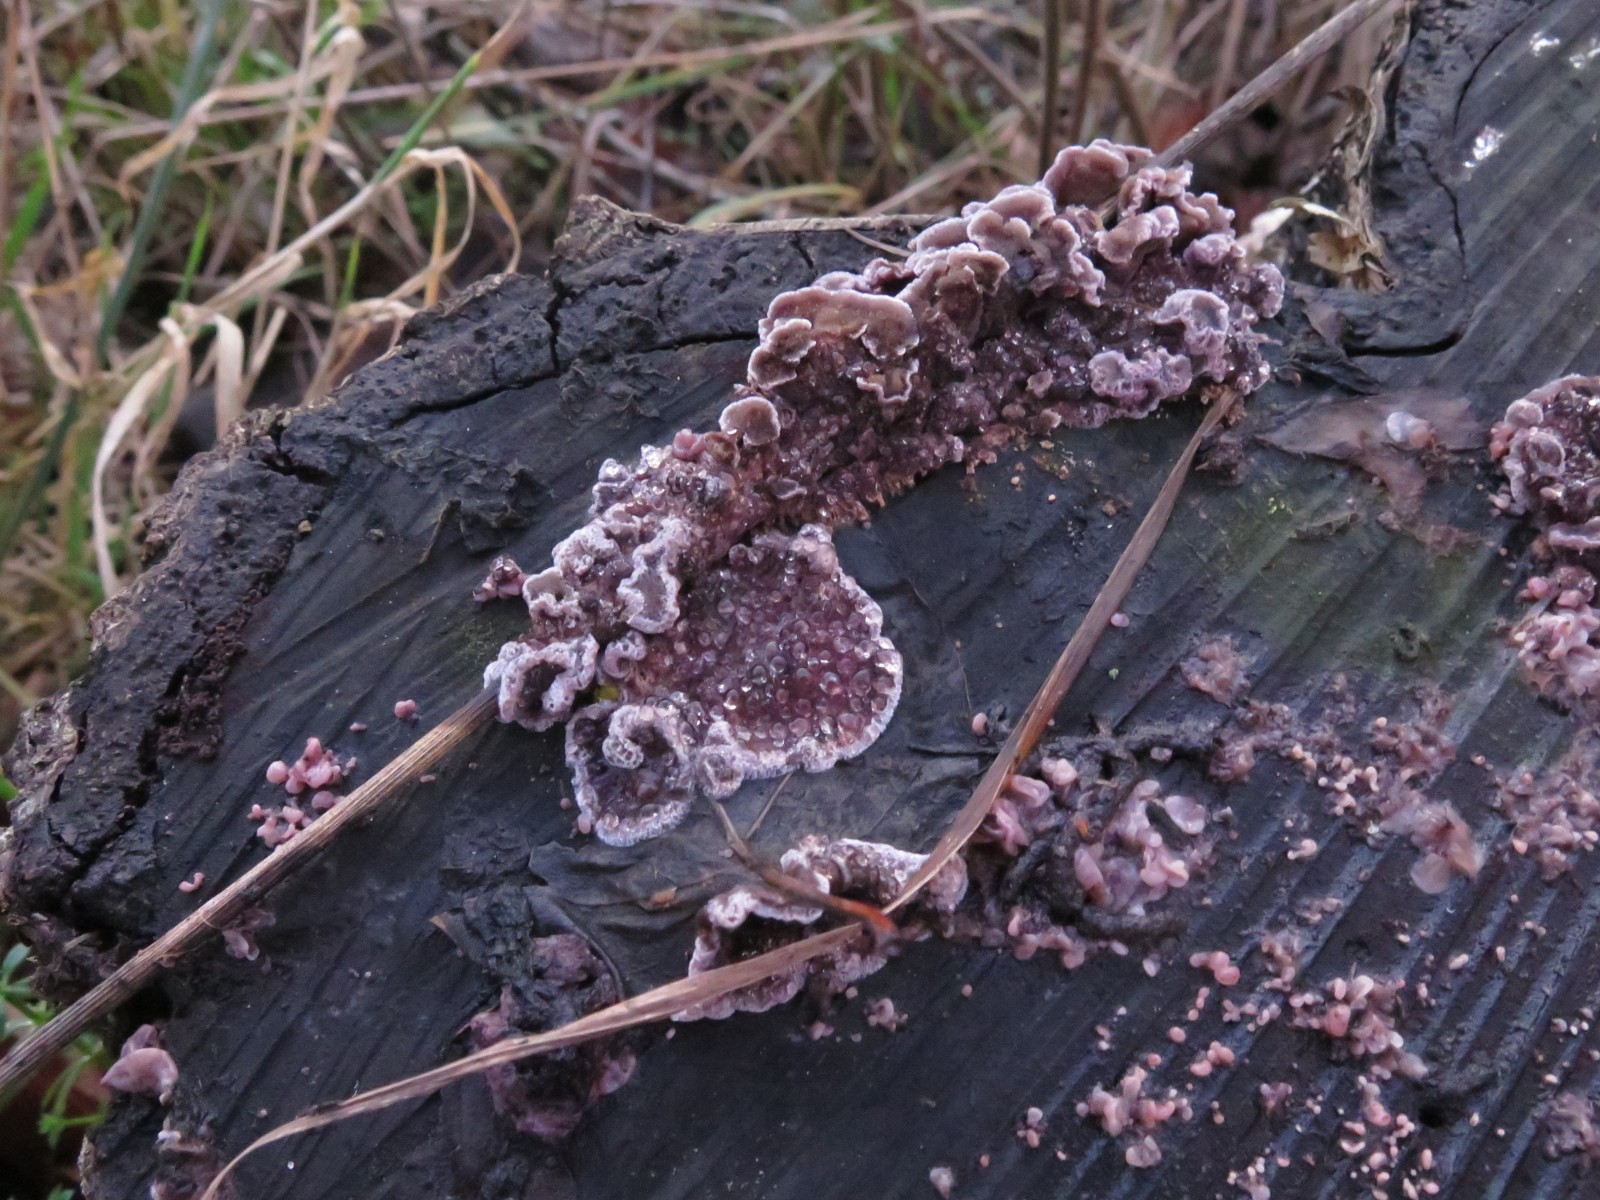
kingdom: Fungi
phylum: Ascomycota
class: Leotiomycetes
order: Helotiales
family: Gelatinodiscaceae
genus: Ascocoryne
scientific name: Ascocoryne sarcoides
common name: rødlilla sejskive
